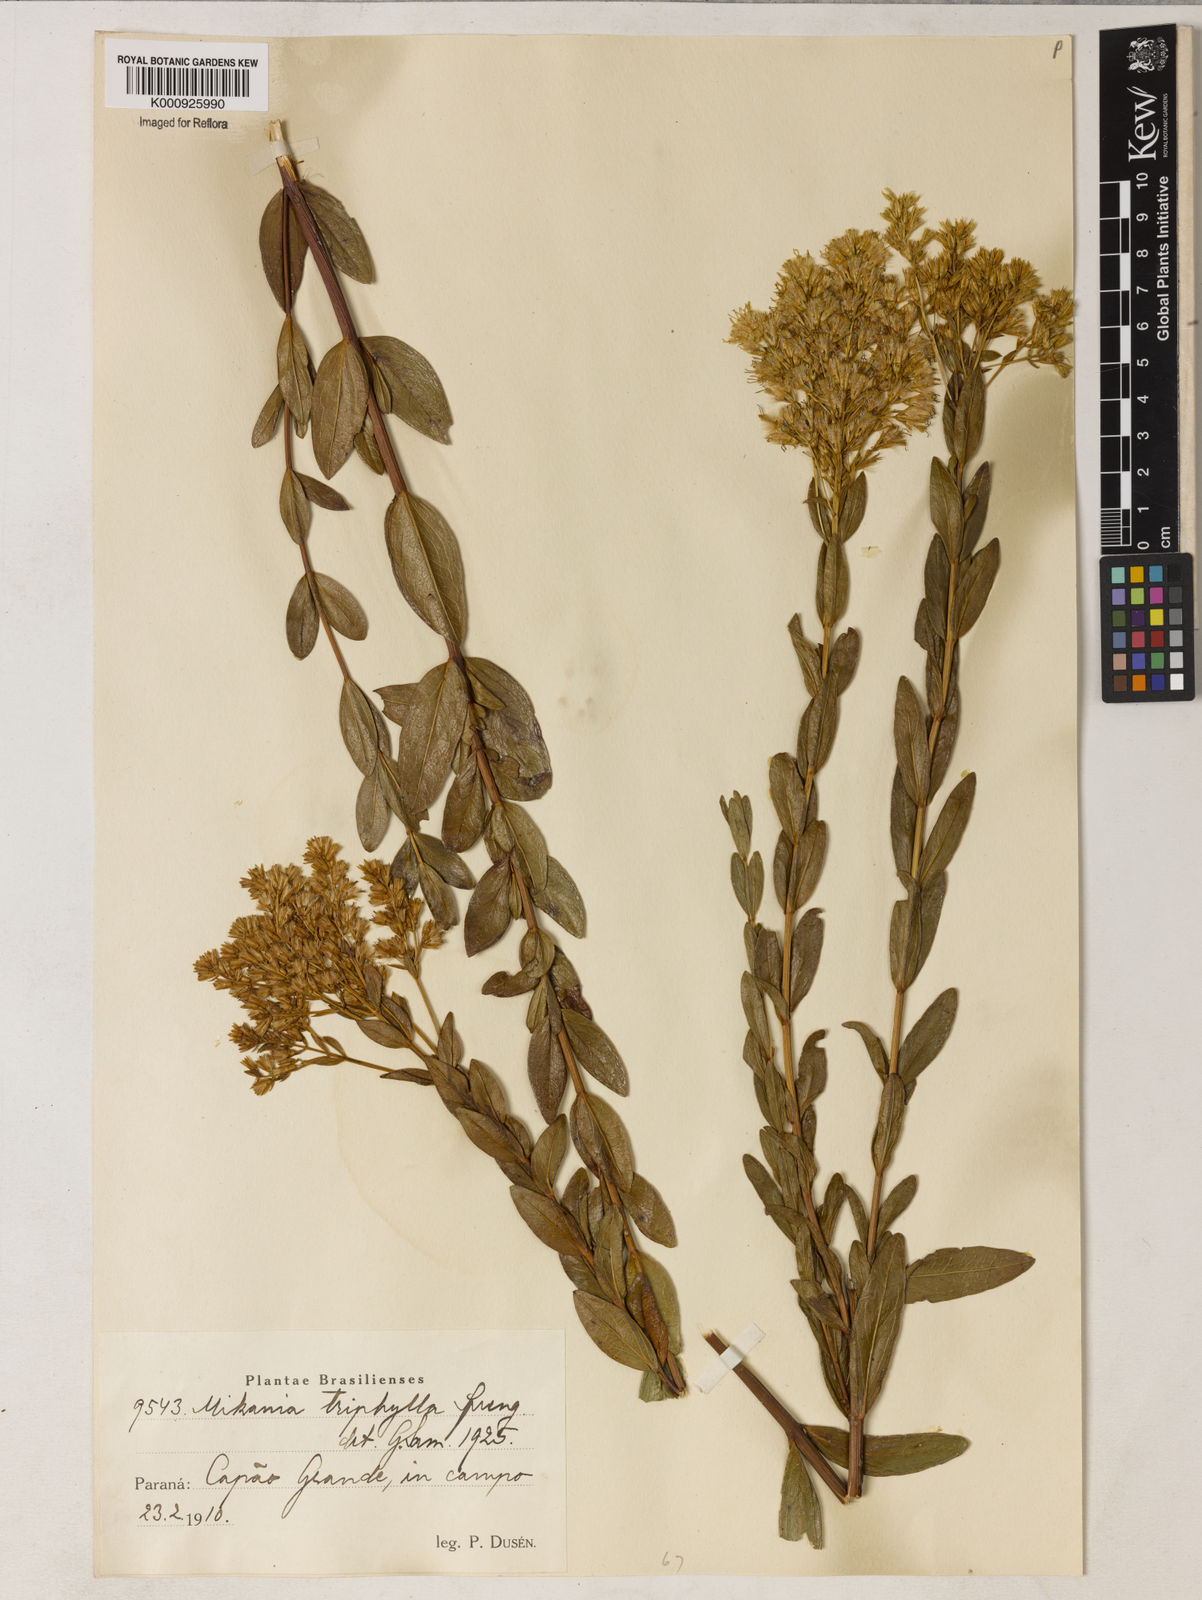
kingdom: Plantae
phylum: Tracheophyta
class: Magnoliopsida
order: Asterales
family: Asteraceae
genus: Mikania
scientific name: Mikania
